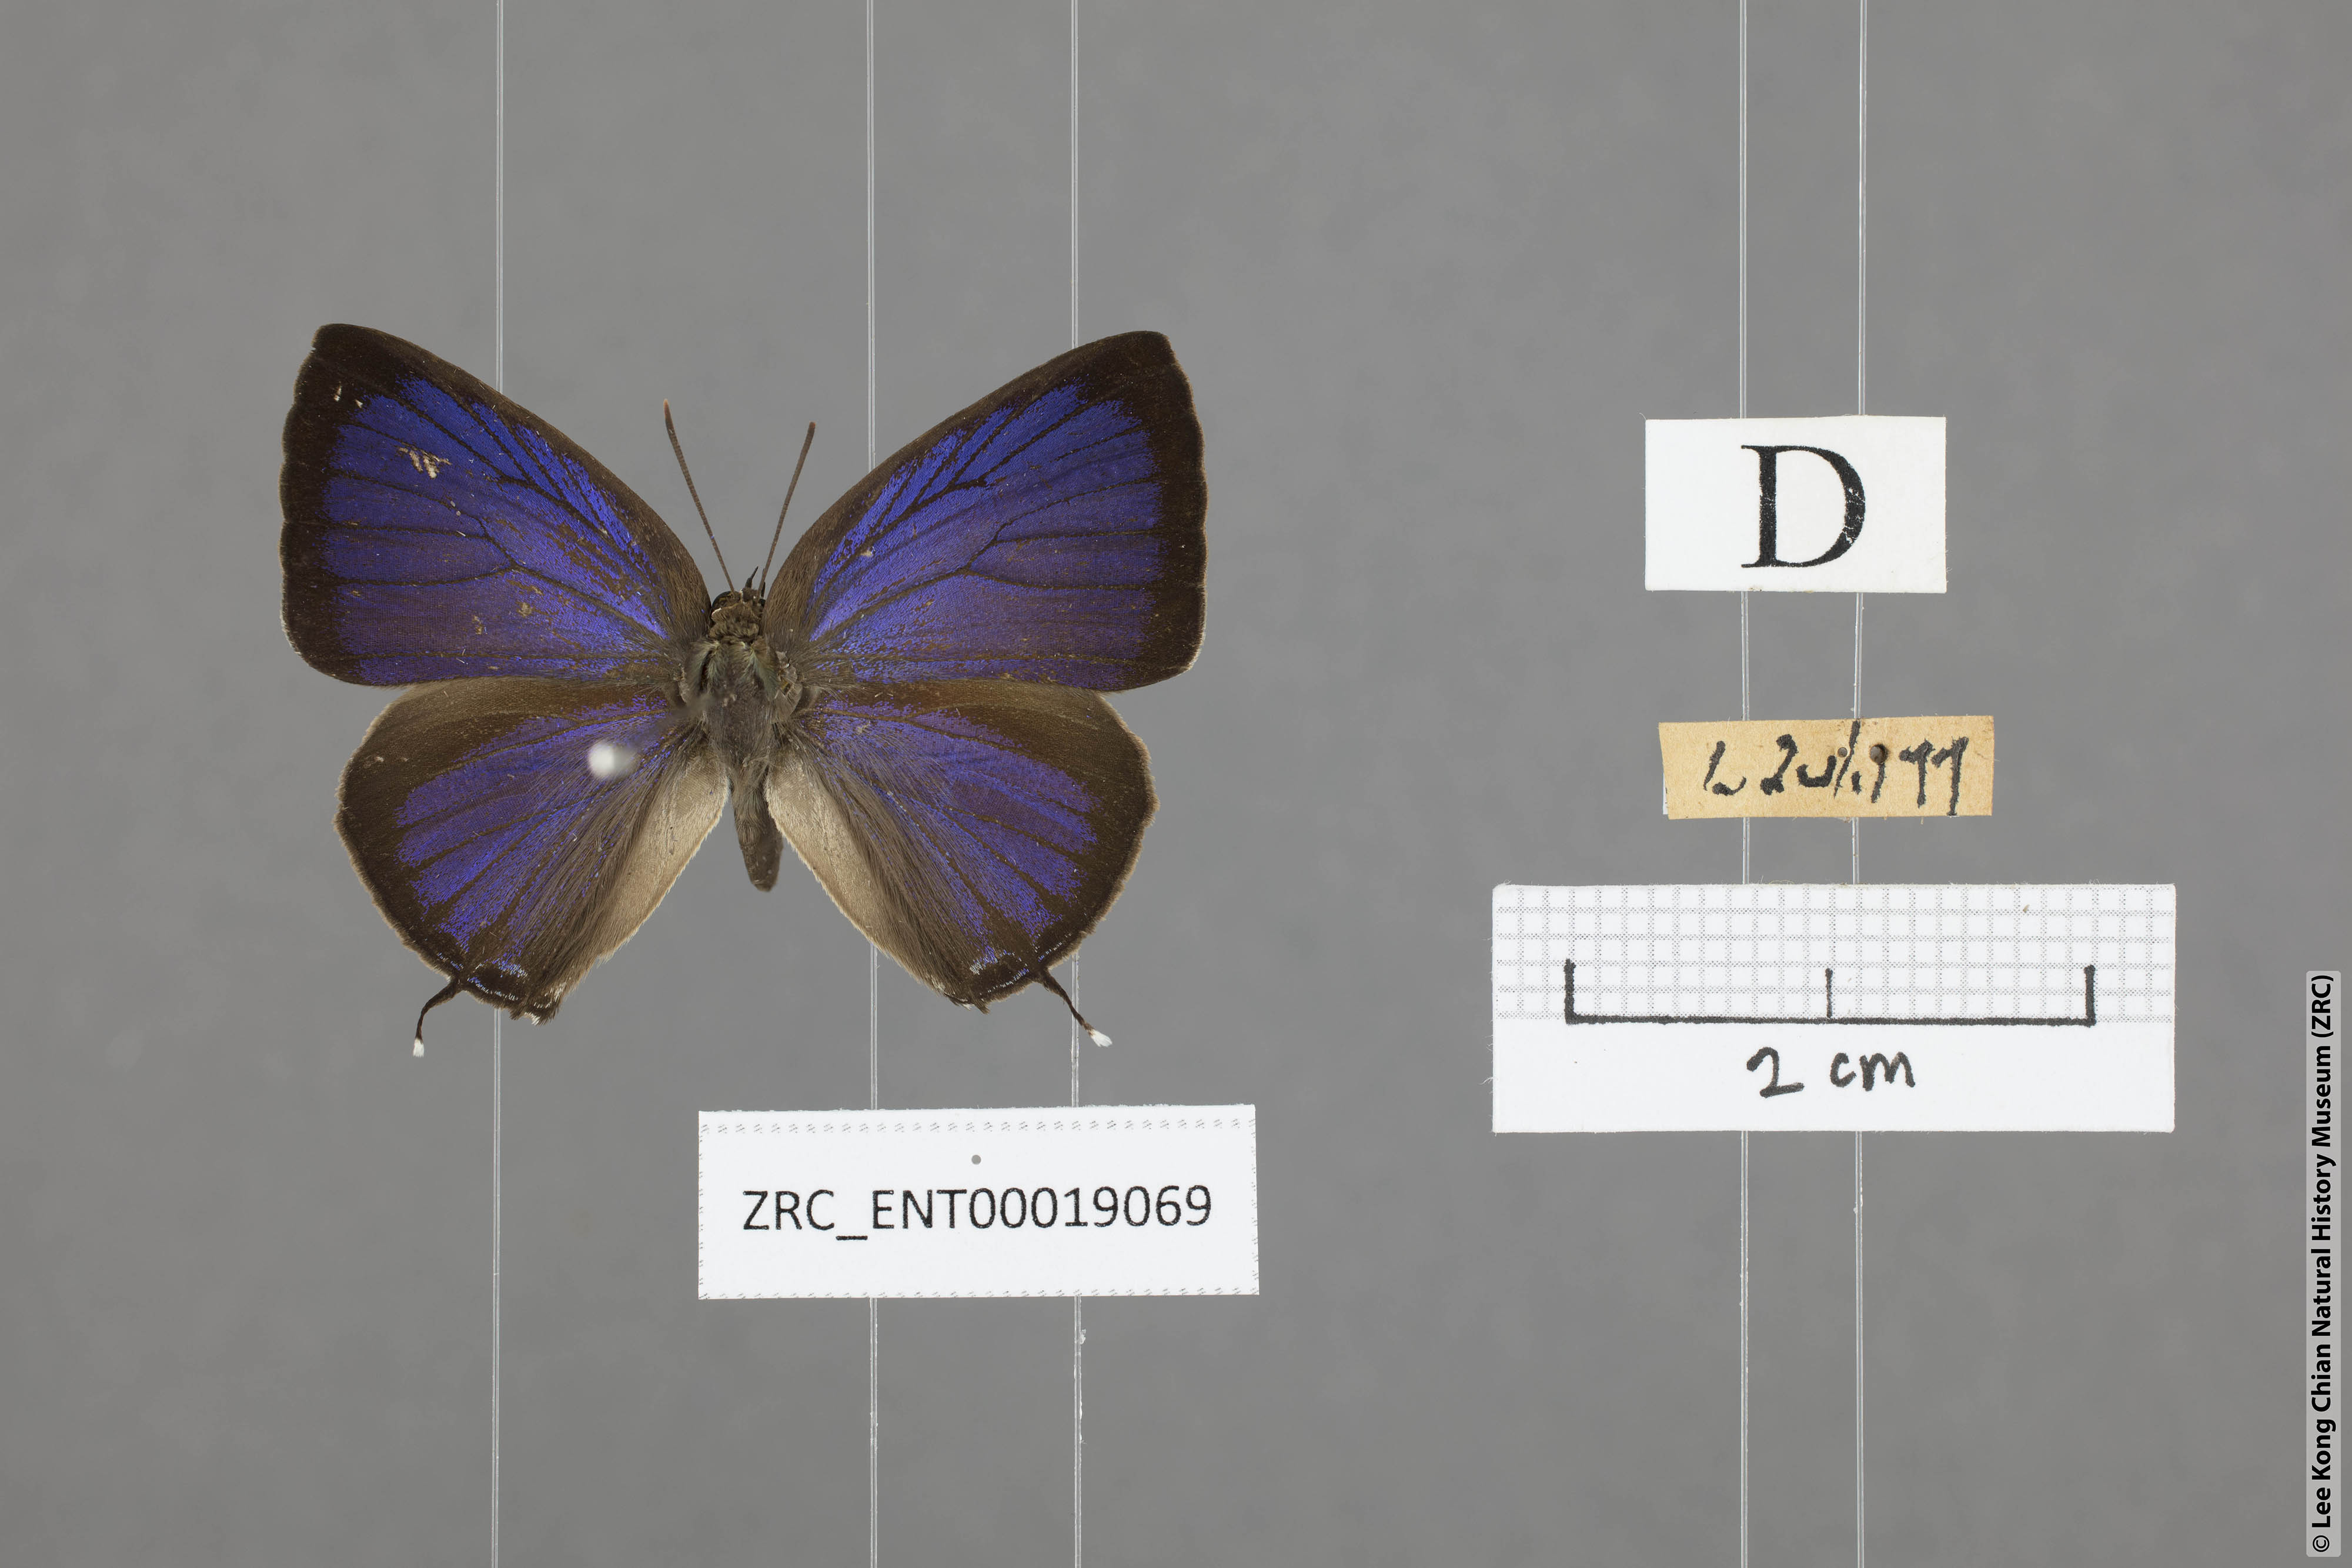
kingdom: Animalia
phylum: Arthropoda
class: Insecta
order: Lepidoptera
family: Lycaenidae
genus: Arhopala
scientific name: Arhopala aida
